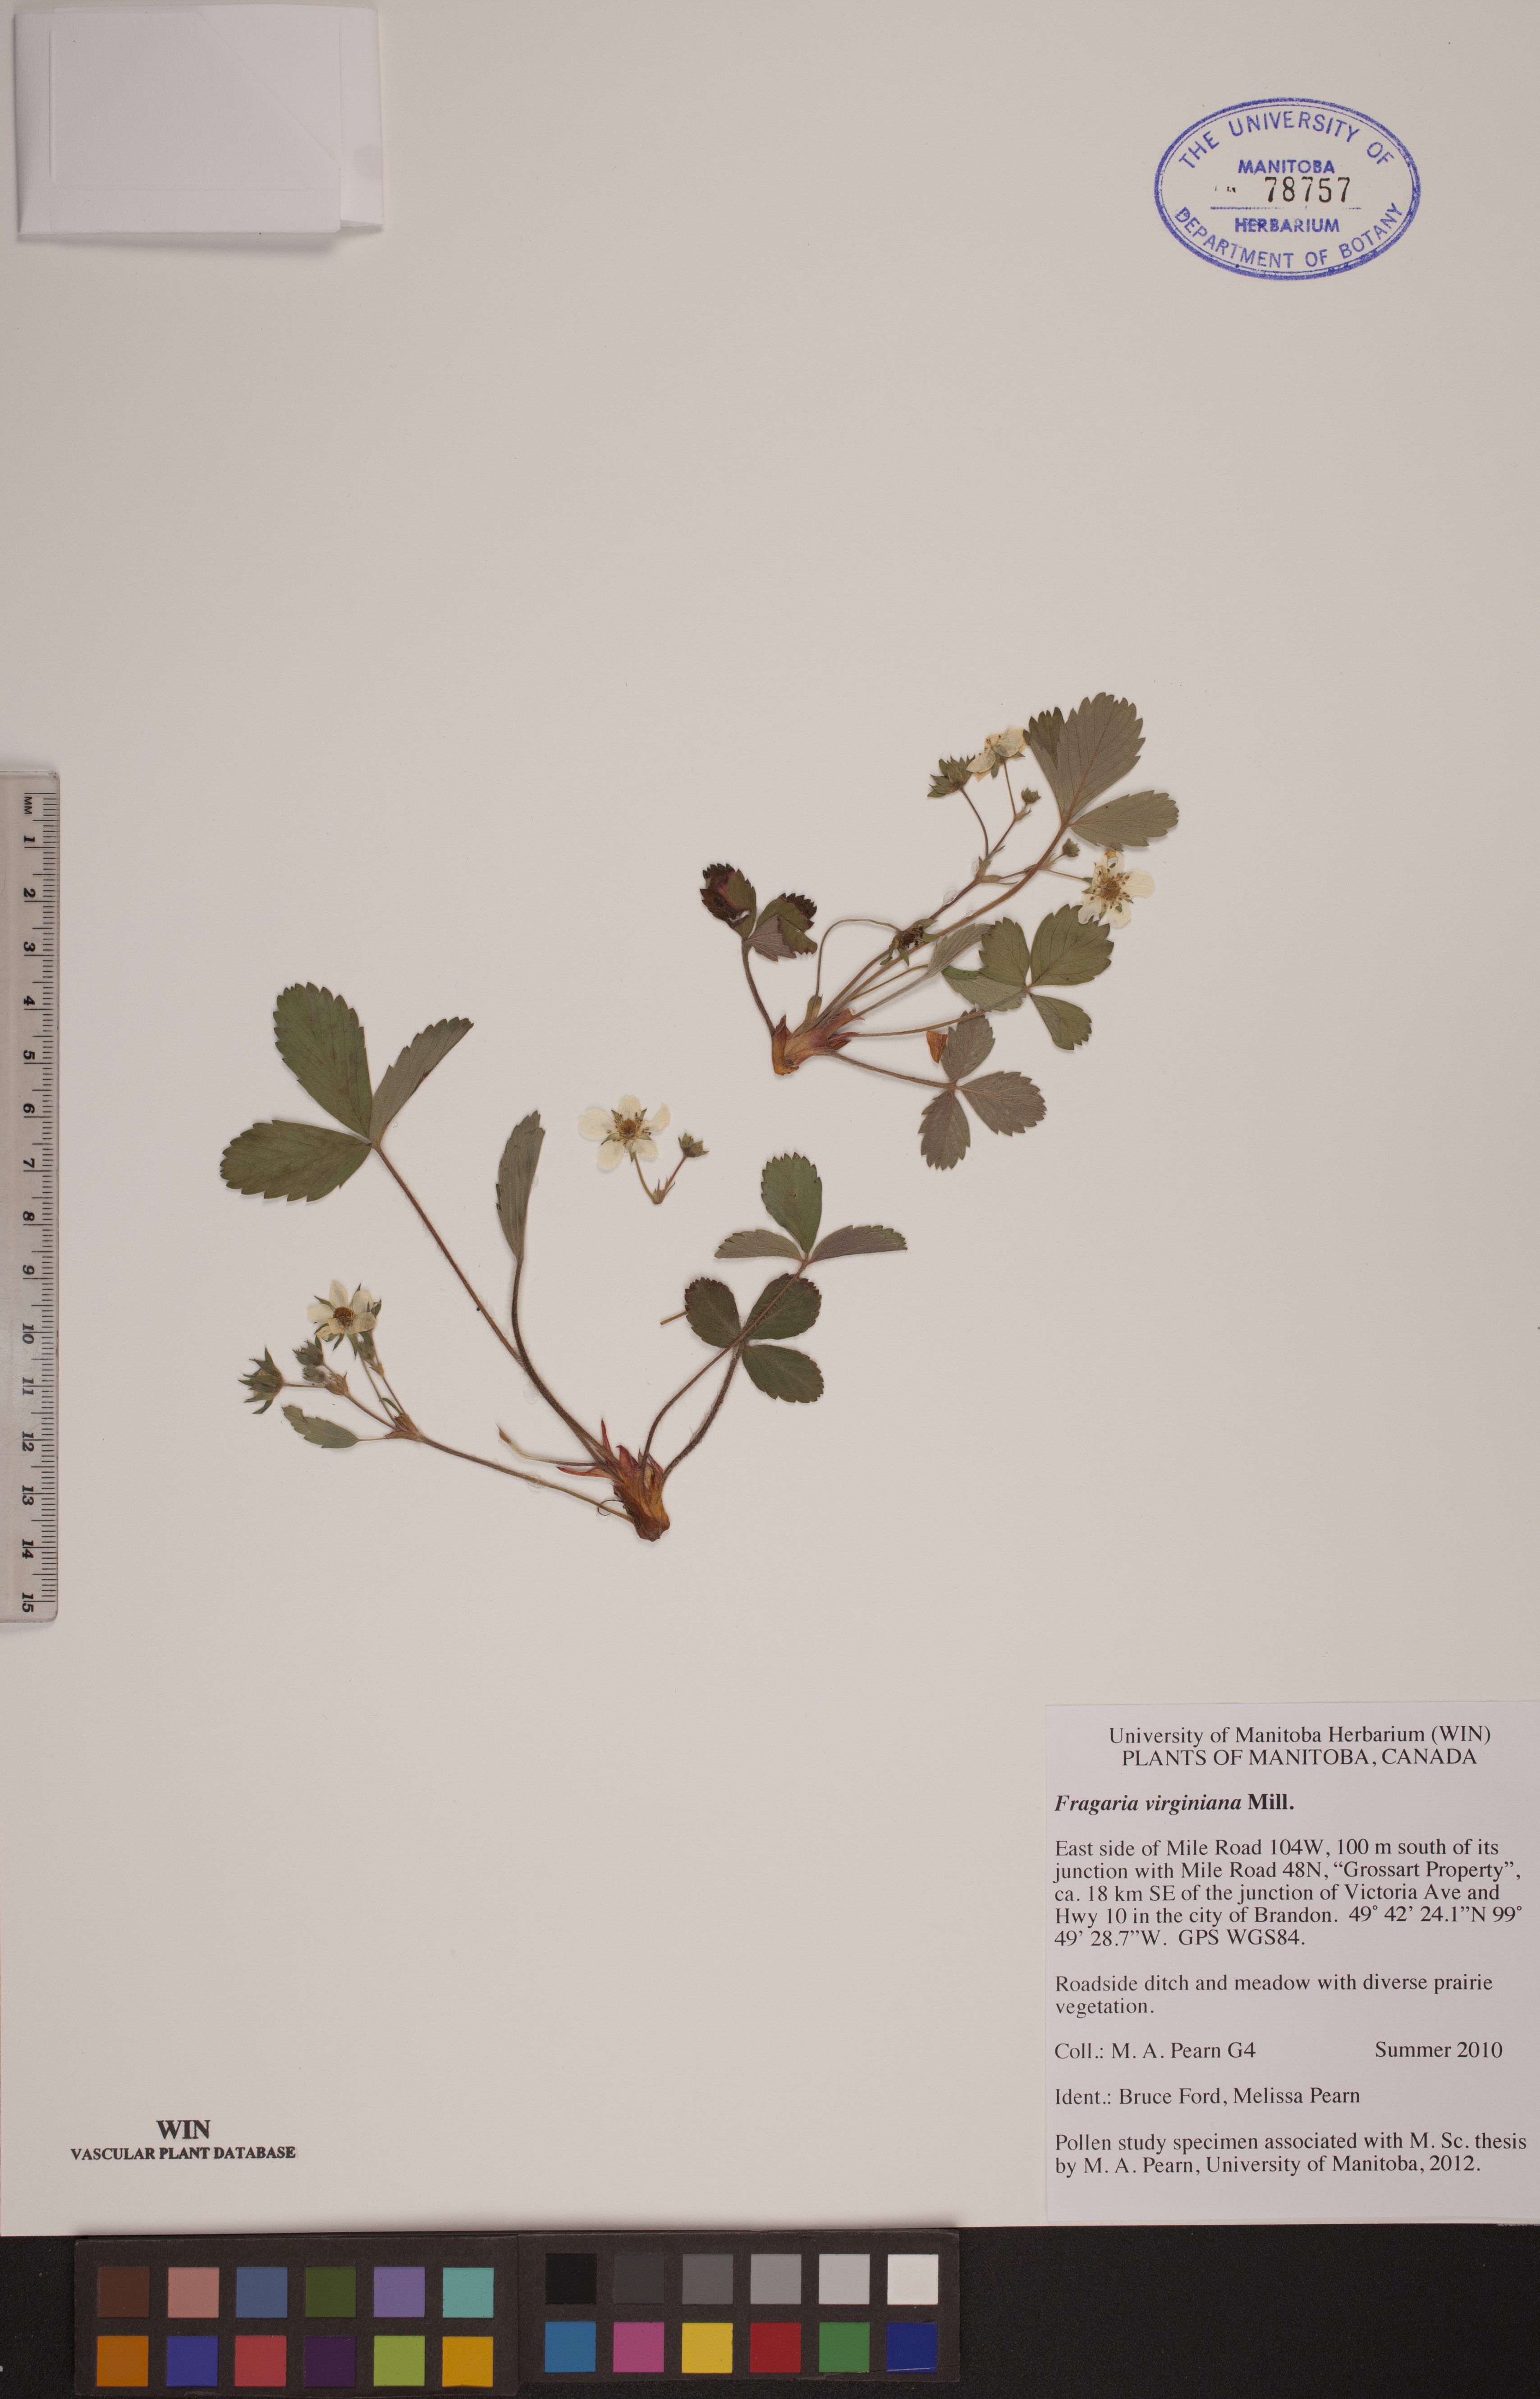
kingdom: Plantae
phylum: Tracheophyta
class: Magnoliopsida
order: Rosales
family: Rosaceae
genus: Fragaria
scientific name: Fragaria virginiana
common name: Thickleaved wild strawberry
